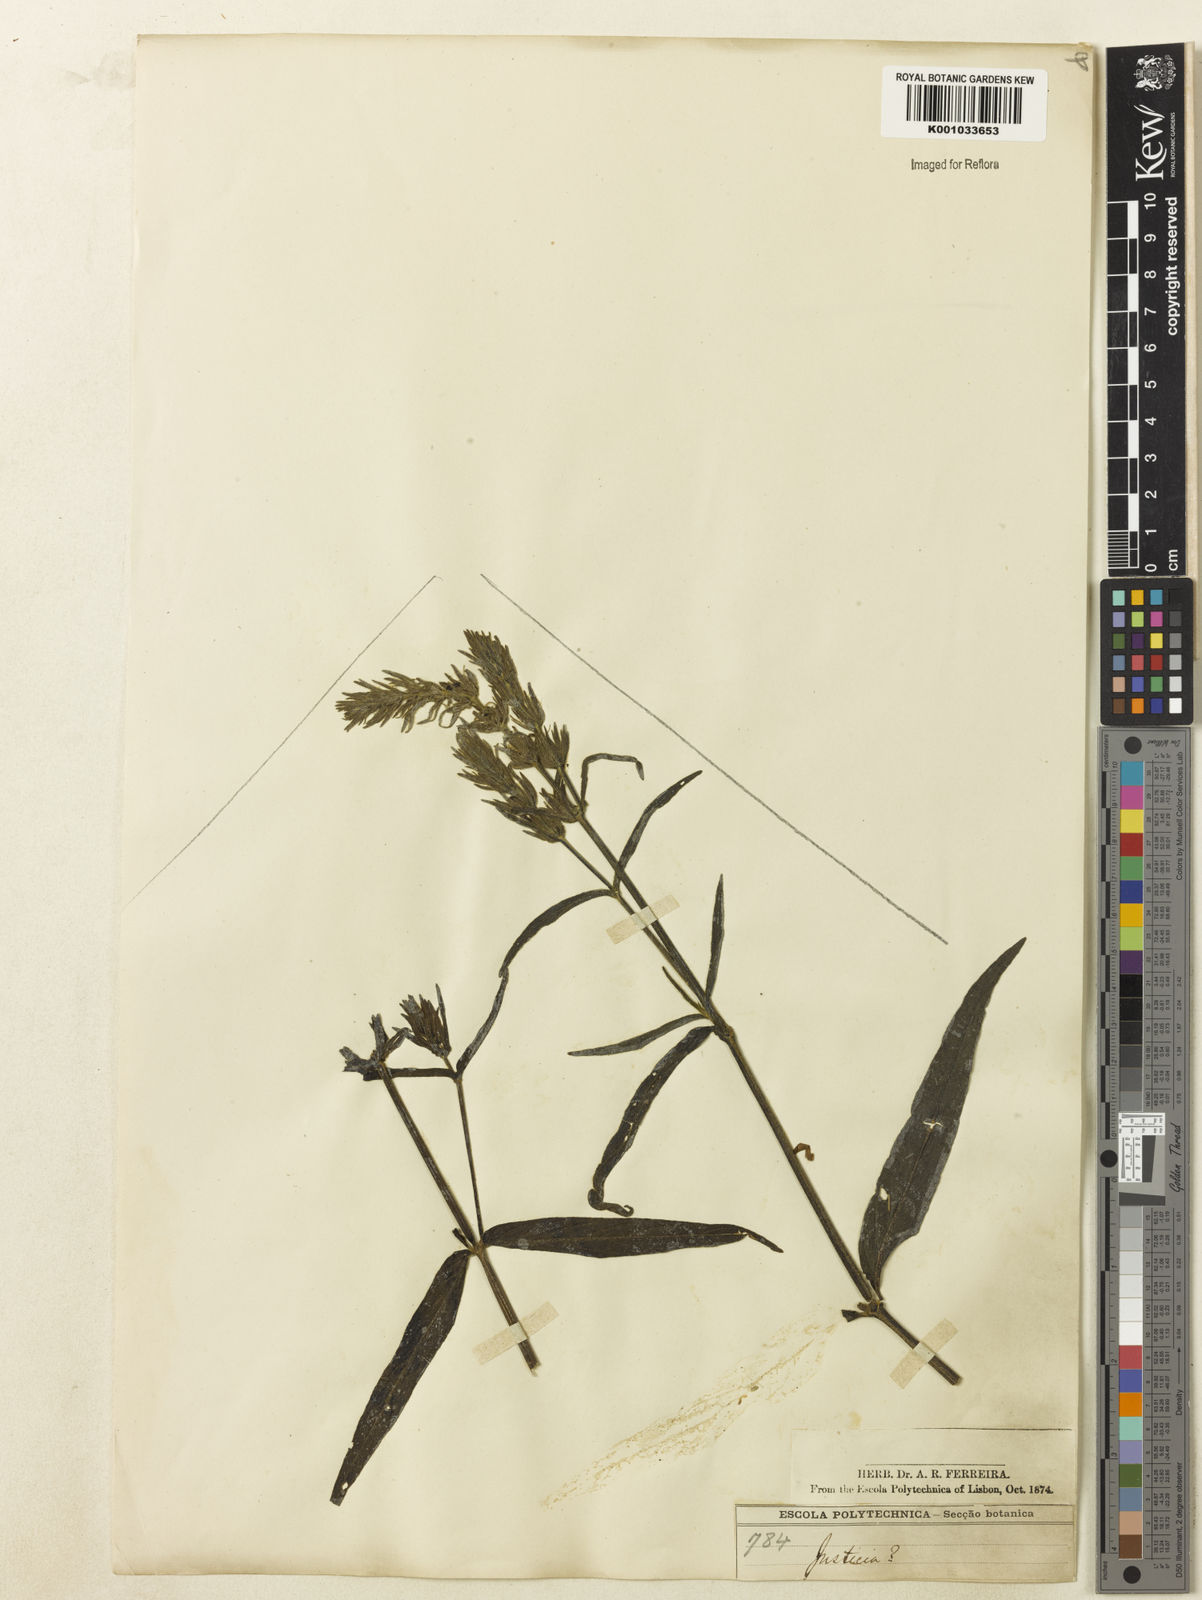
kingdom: Plantae
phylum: Tracheophyta
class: Magnoliopsida
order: Lamiales
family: Acanthaceae
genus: Justicia
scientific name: Justicia
